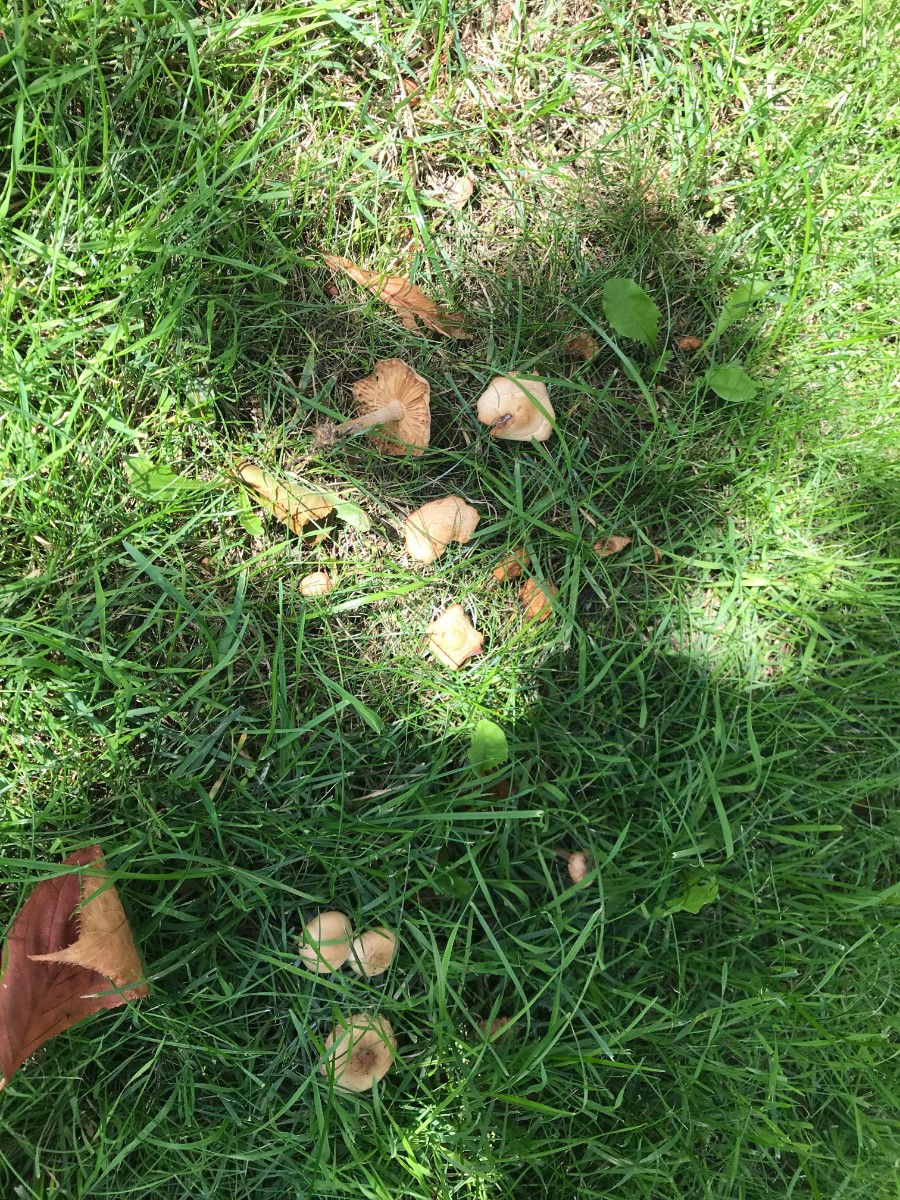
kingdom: Fungi
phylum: Basidiomycota
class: Agaricomycetes
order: Agaricales
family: Marasmiaceae
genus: Marasmius
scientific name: Marasmius oreades
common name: elledans-bruskhat
